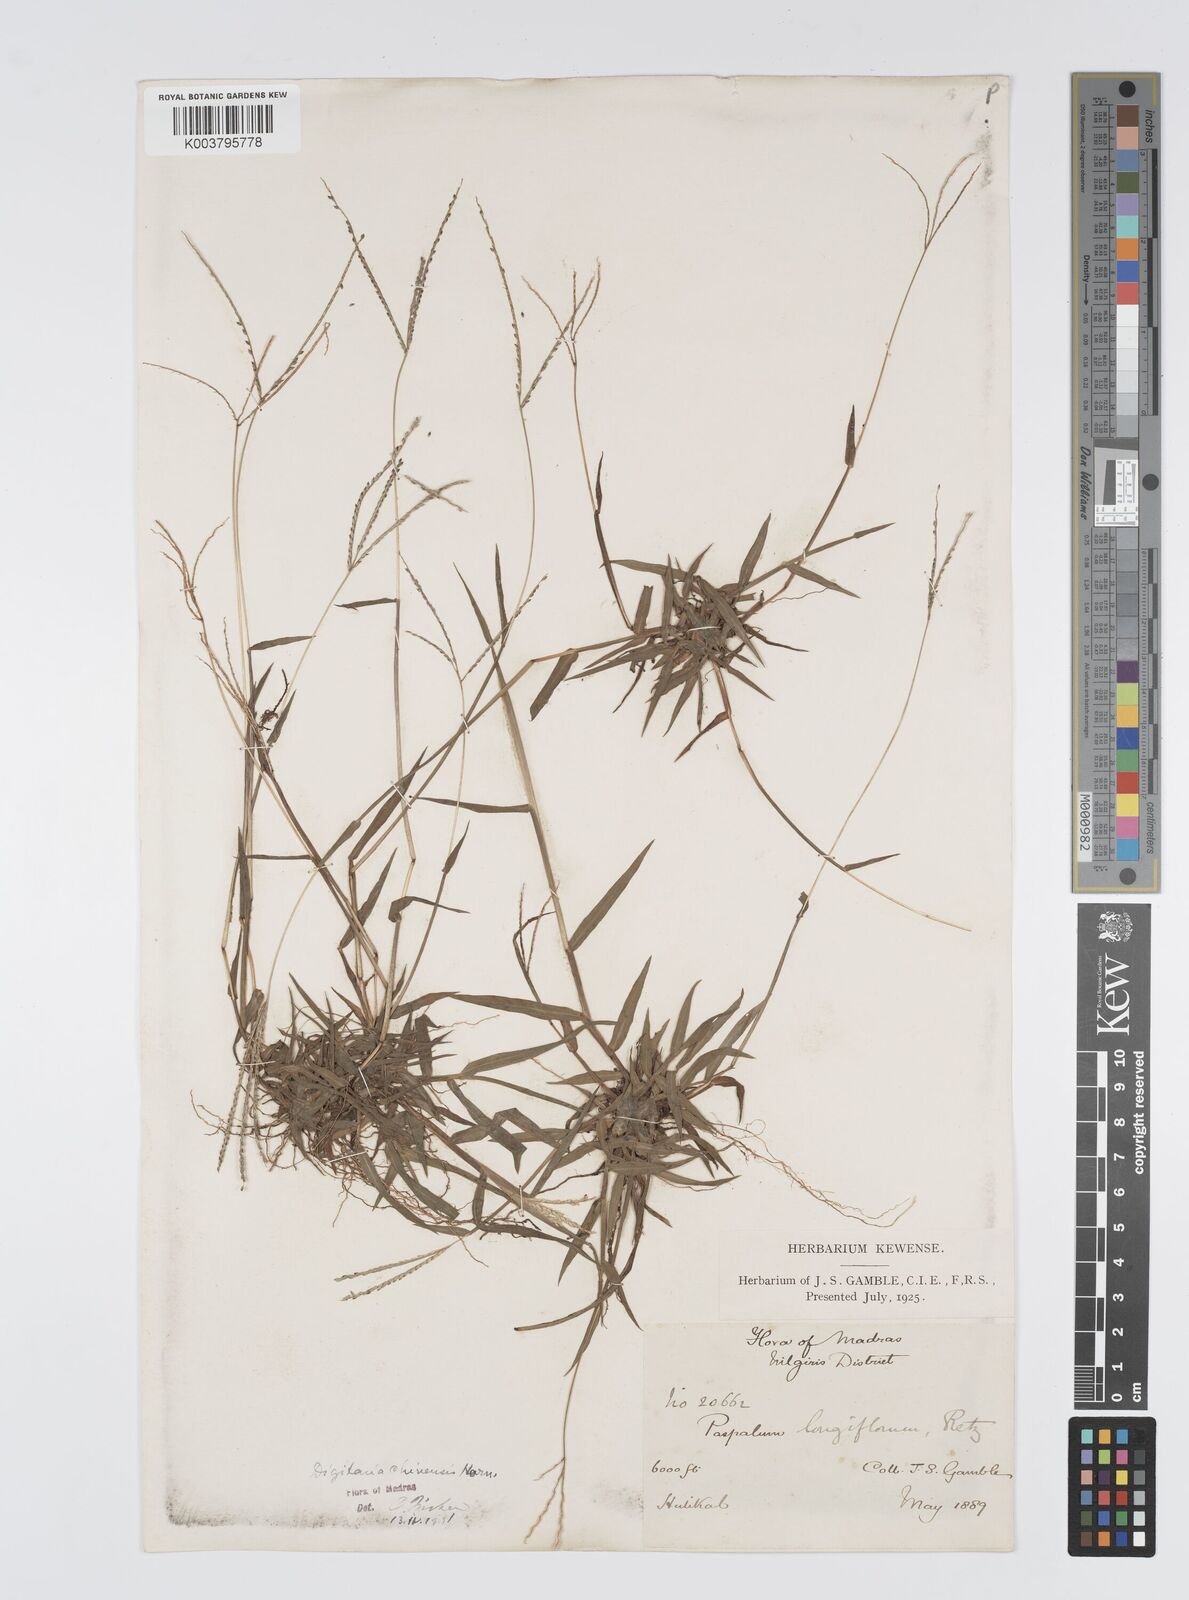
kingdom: Plantae
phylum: Tracheophyta
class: Liliopsida
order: Poales
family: Poaceae
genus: Digitaria
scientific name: Digitaria violascens
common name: Violet crabgrass
